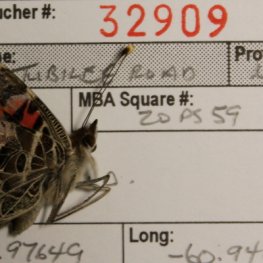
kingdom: Animalia
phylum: Arthropoda
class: Insecta
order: Lepidoptera
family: Nymphalidae
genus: Vanessa
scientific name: Vanessa virginiensis
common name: American Lady
